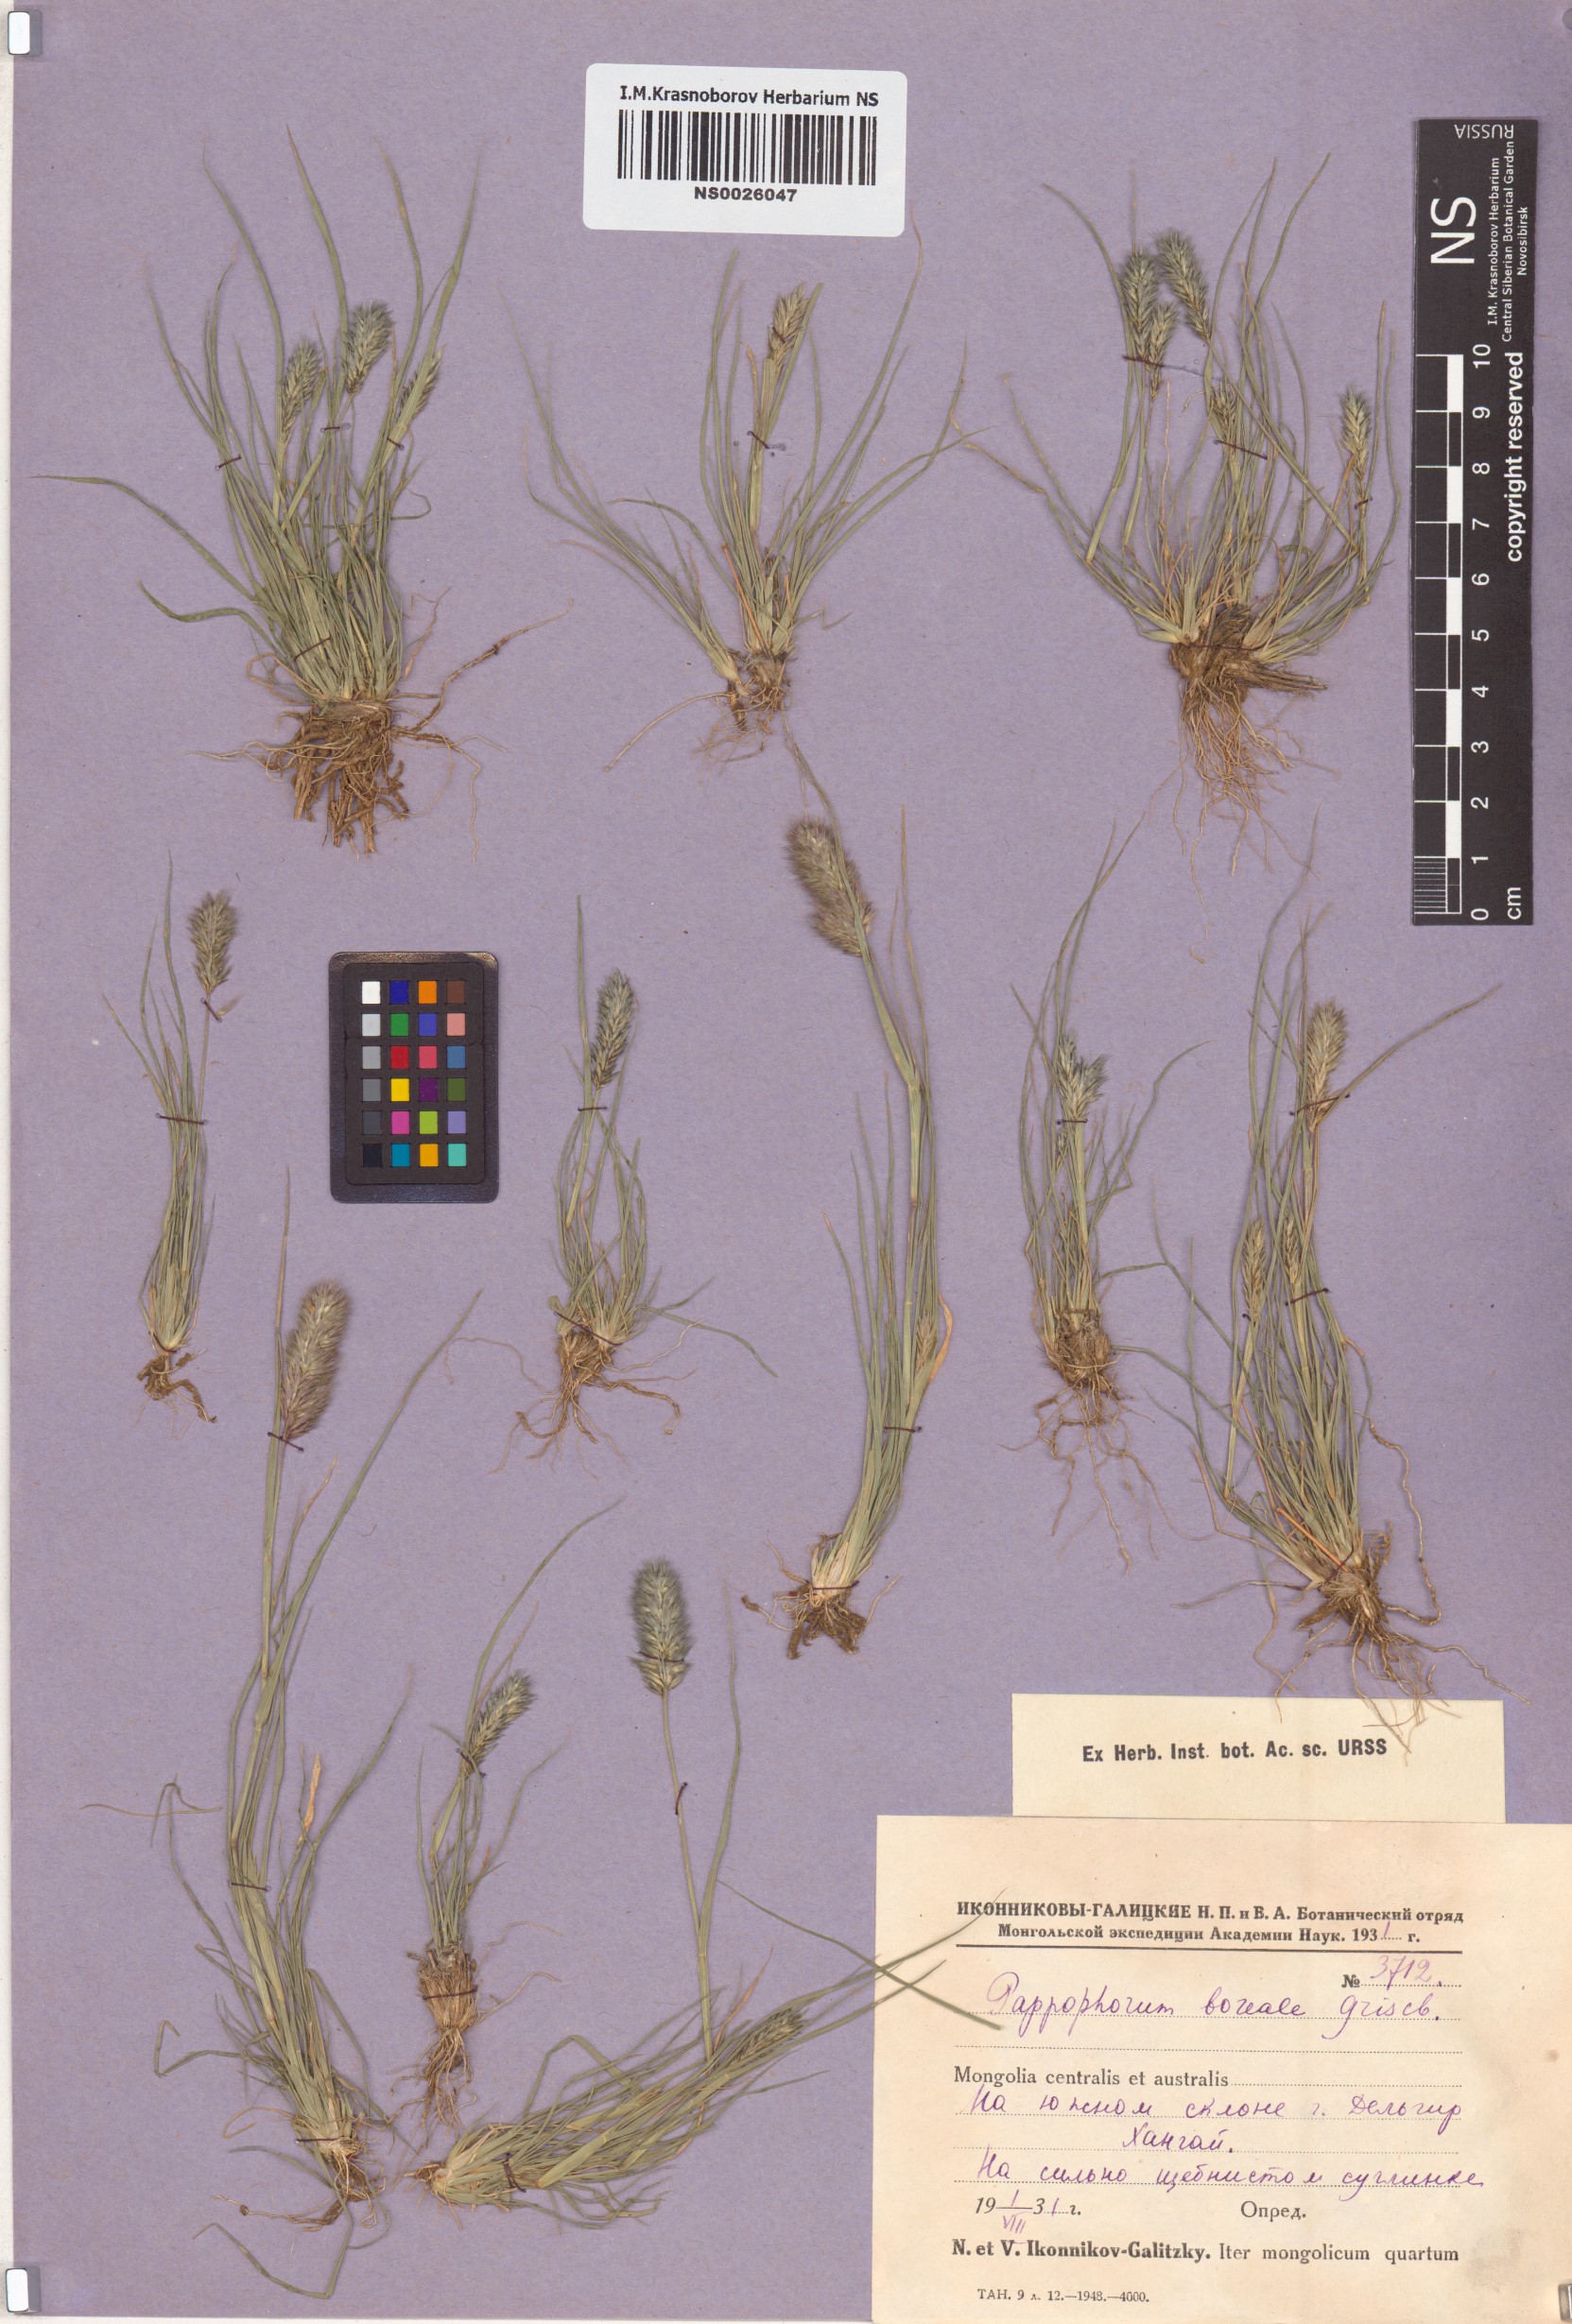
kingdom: Plantae
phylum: Tracheophyta
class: Liliopsida
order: Poales
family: Poaceae
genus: Enneapogon
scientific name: Enneapogon desvauxii
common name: Feather pappus grass
